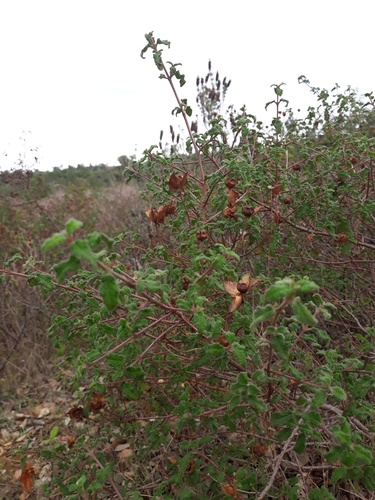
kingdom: Plantae
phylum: Tracheophyta
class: Magnoliopsida
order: Malvales
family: Cistaceae
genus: Cistus
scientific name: Cistus salviifolius
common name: Salvia cistus
